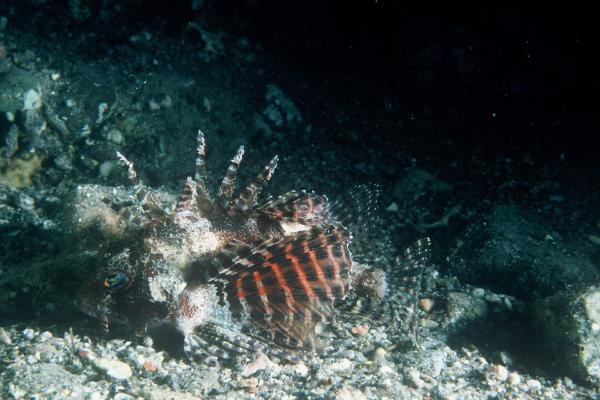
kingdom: Animalia
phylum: Chordata
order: Scorpaeniformes
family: Scorpaenidae
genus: Dendrochirus
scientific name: Dendrochirus brachypterus
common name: Shortfin turkeyfish
